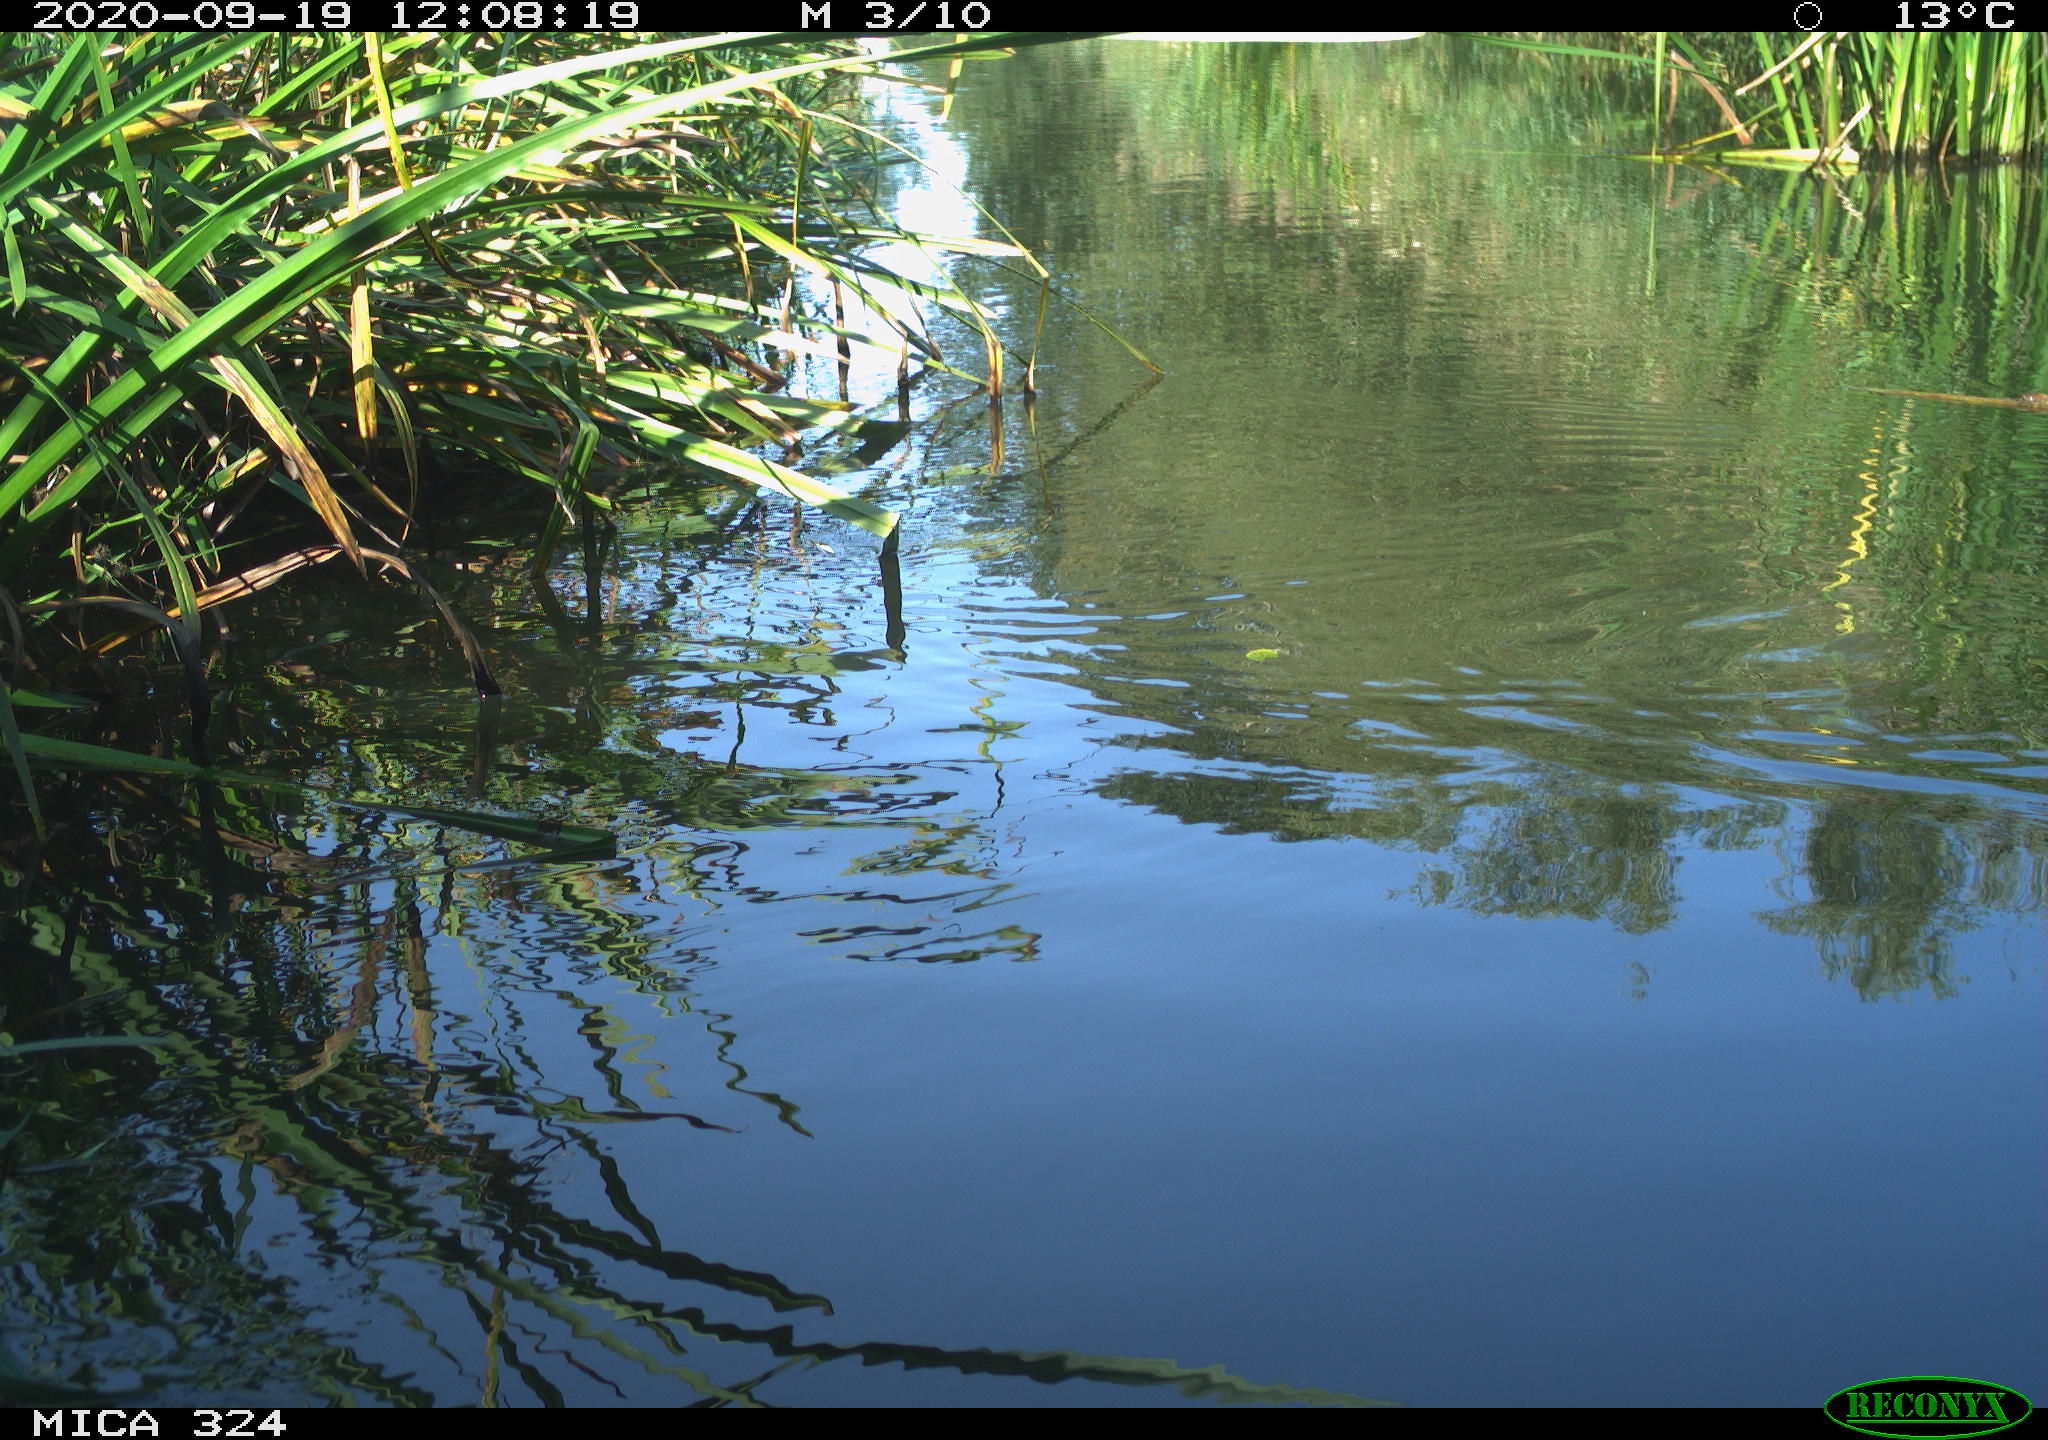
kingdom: Animalia
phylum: Chordata
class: Aves
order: Gruiformes
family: Rallidae
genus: Gallinula
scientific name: Gallinula chloropus
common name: Common moorhen
